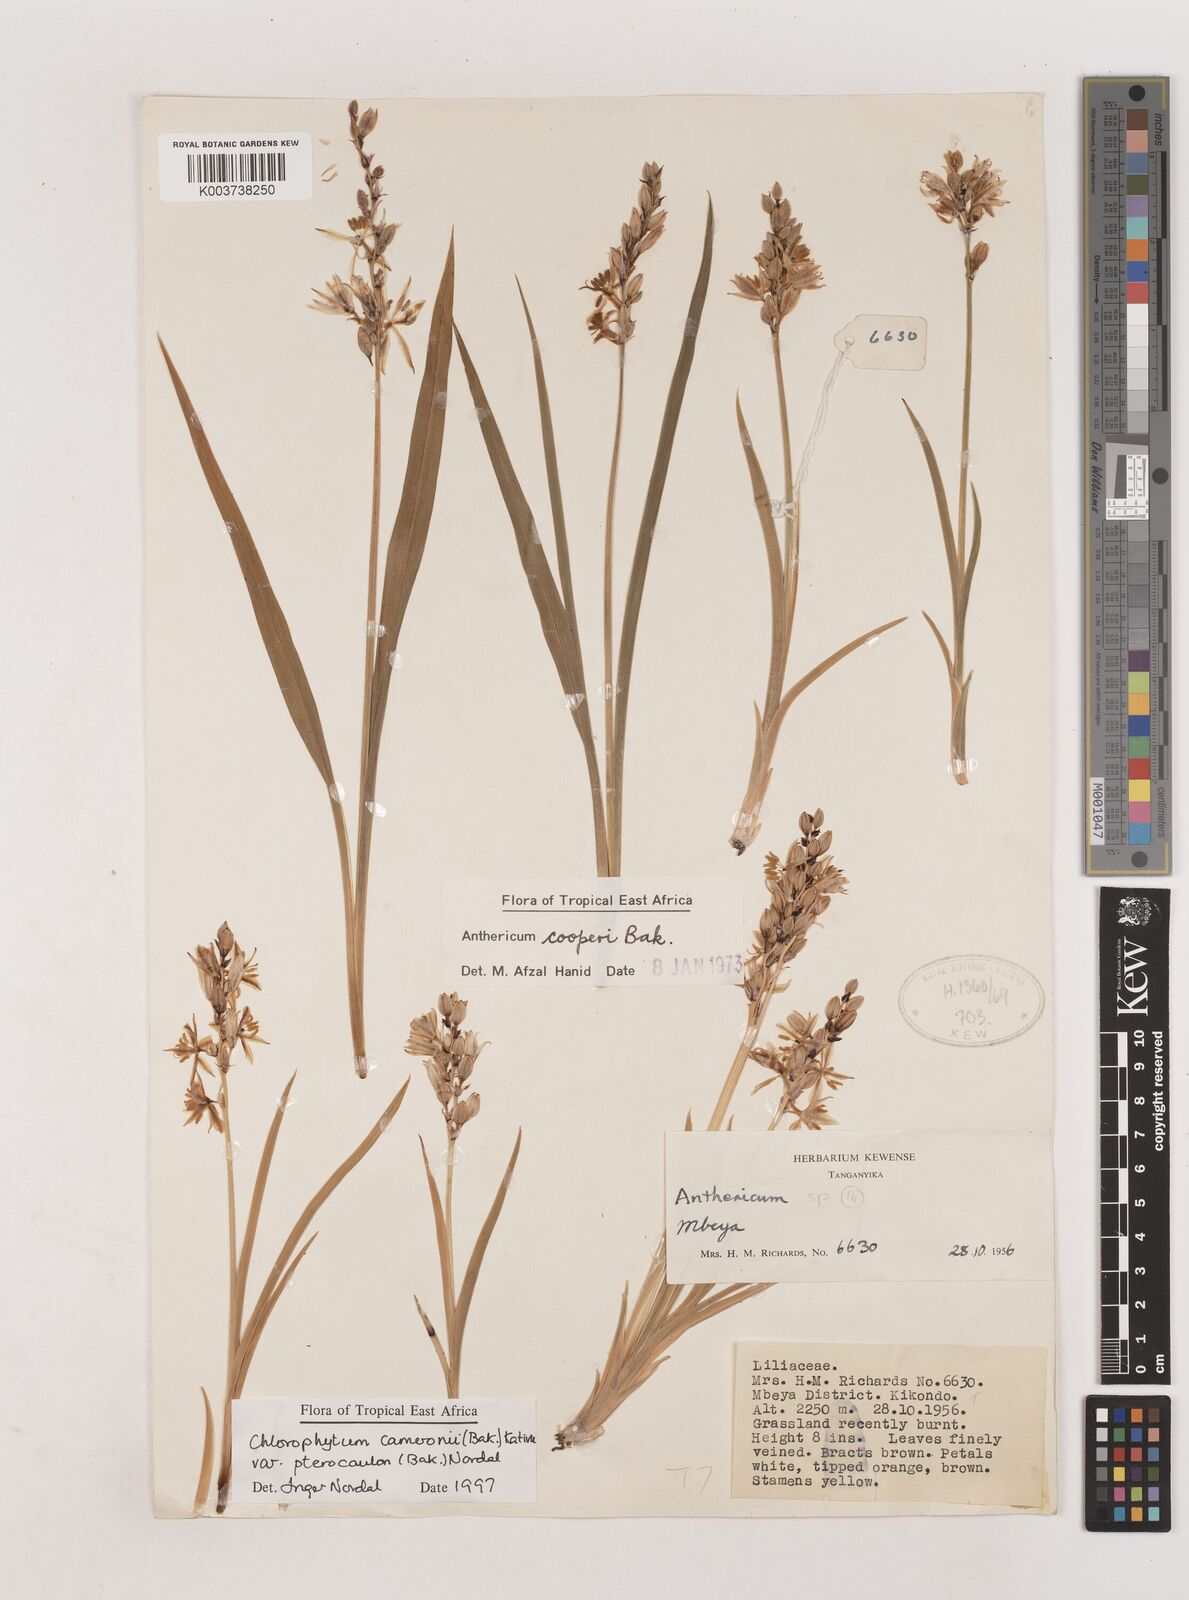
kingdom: Plantae
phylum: Tracheophyta
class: Liliopsida
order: Asparagales
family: Asparagaceae
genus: Chlorophytum
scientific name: Chlorophytum cameronii
